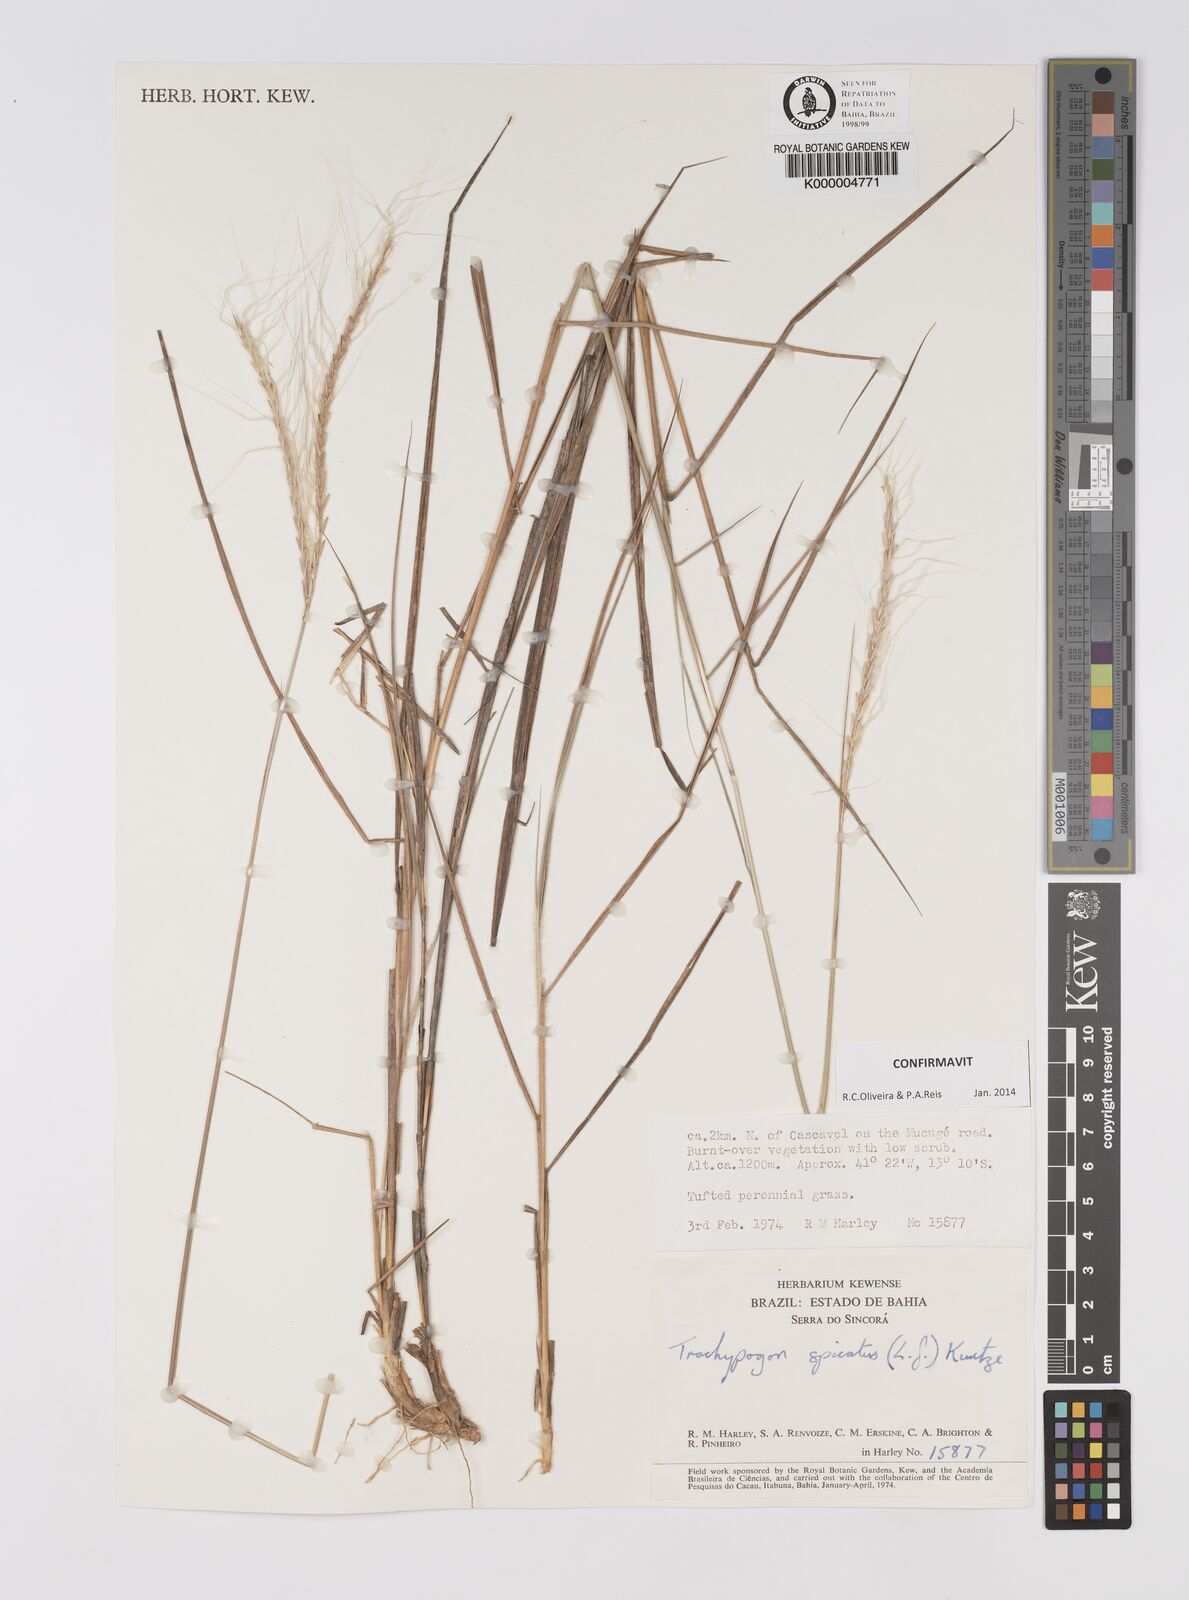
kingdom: Plantae
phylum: Tracheophyta
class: Liliopsida
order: Poales
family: Poaceae
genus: Trachypogon
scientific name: Trachypogon spicatus
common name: Crinkle-awn
